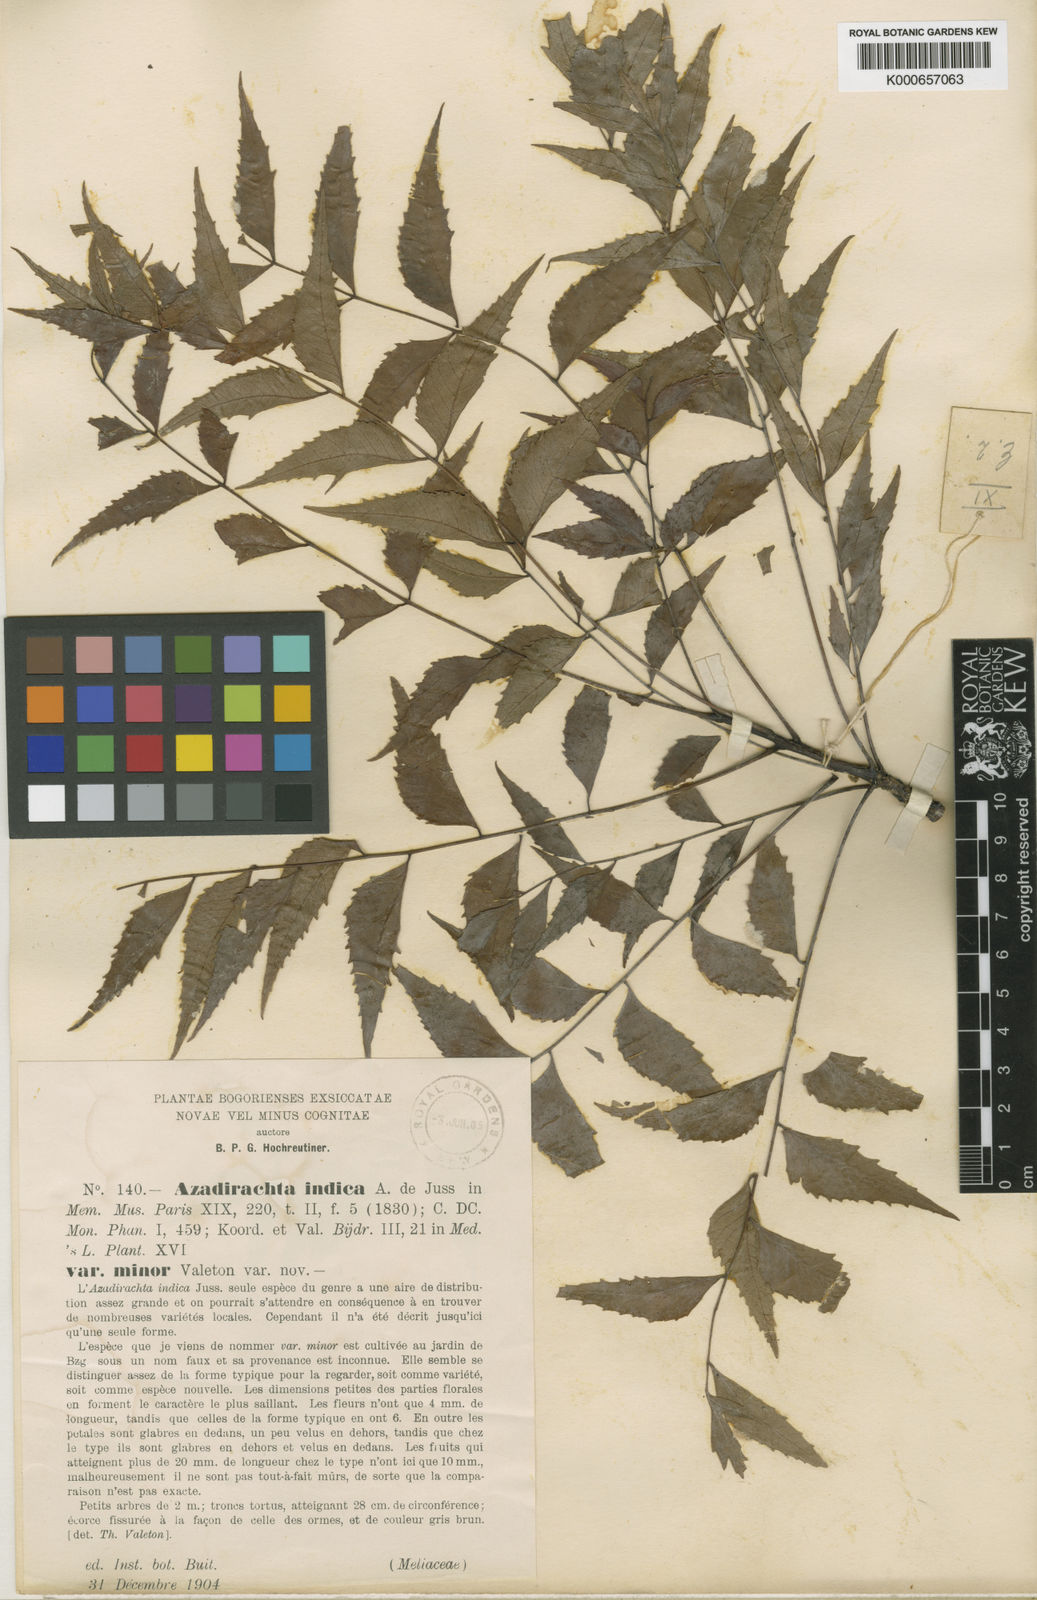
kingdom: Plantae
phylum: Tracheophyta
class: Magnoliopsida
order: Sapindales
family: Meliaceae
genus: Azadirachta
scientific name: Azadirachta indica
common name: Neem
